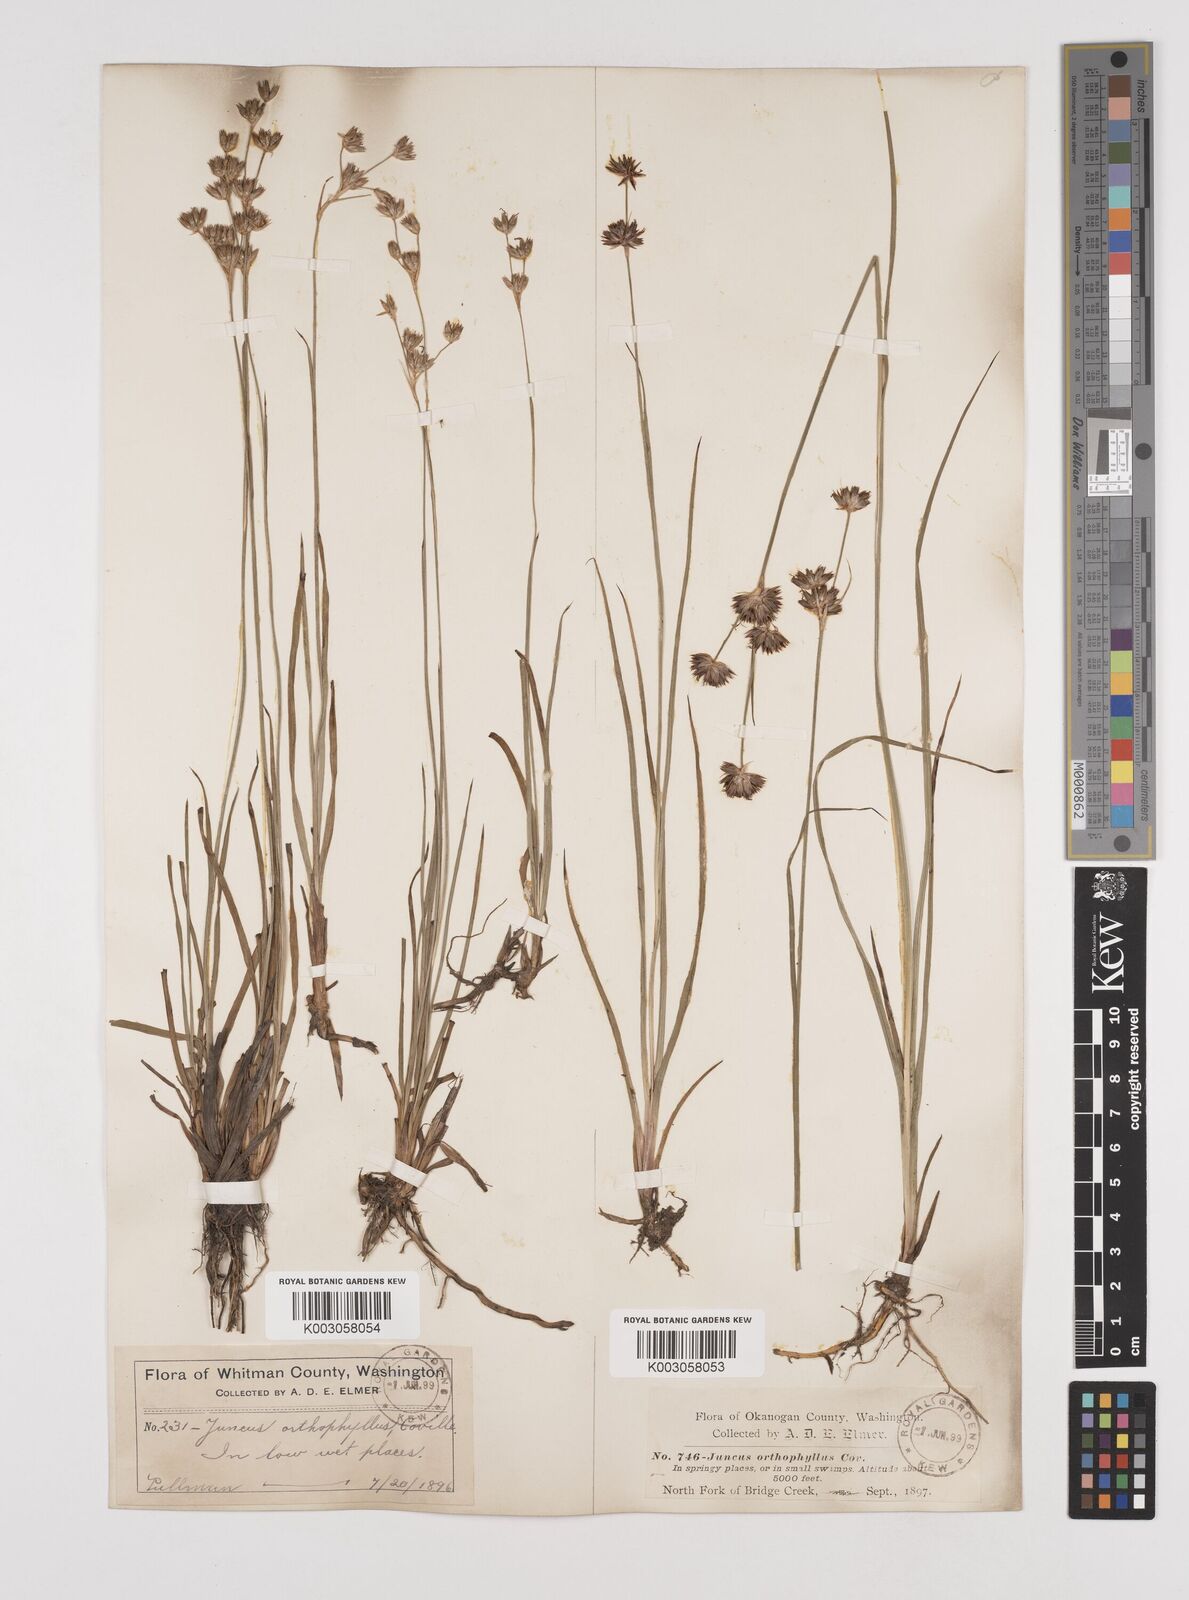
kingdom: Plantae
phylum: Tracheophyta
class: Liliopsida
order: Poales
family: Juncaceae
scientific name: Juncaceae
